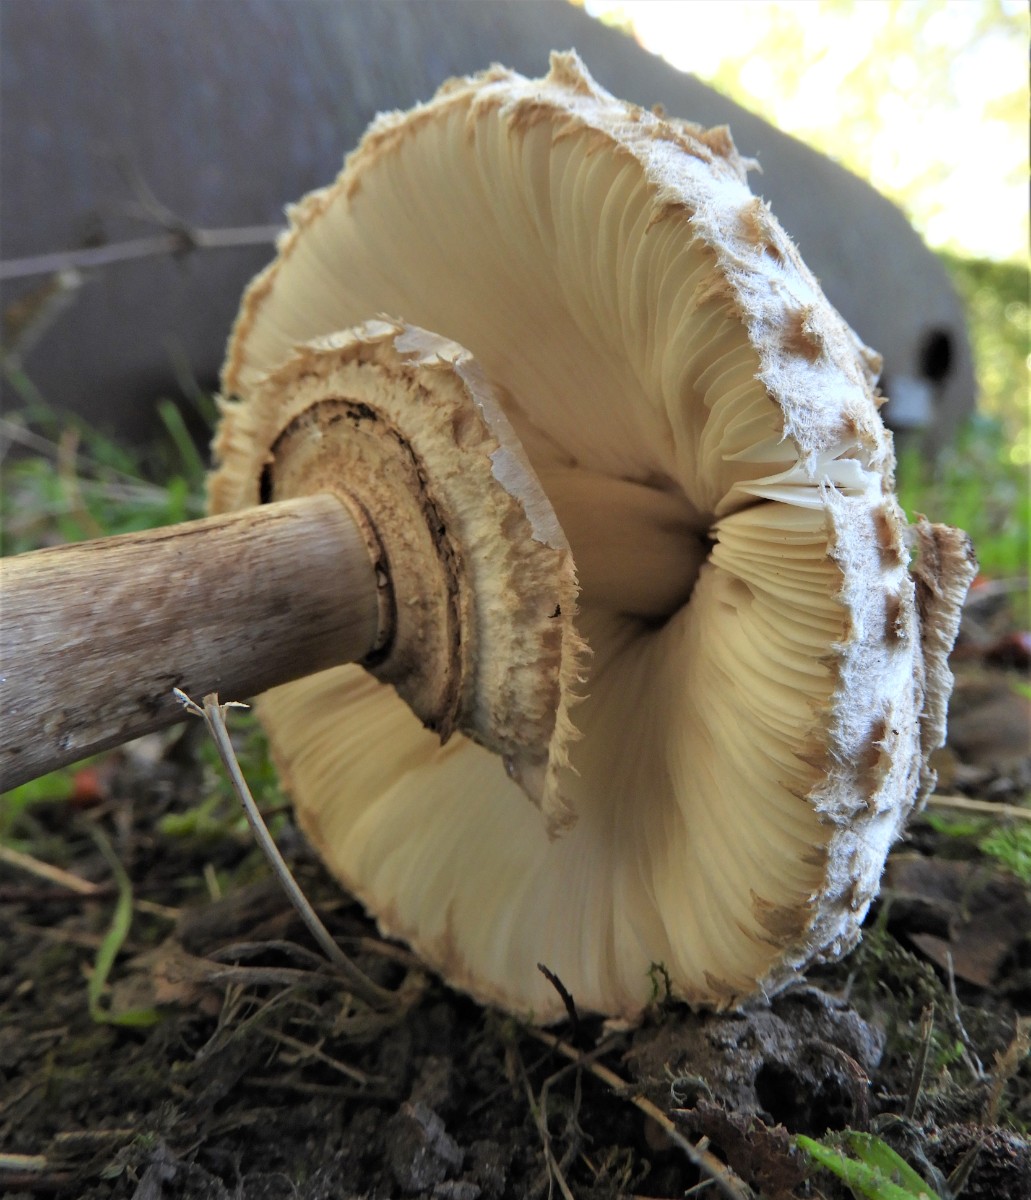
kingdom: Fungi
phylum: Basidiomycota
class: Agaricomycetes
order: Agaricales
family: Agaricaceae
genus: Chlorophyllum
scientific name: Chlorophyllum rhacodes
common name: ægte rabarberhat
